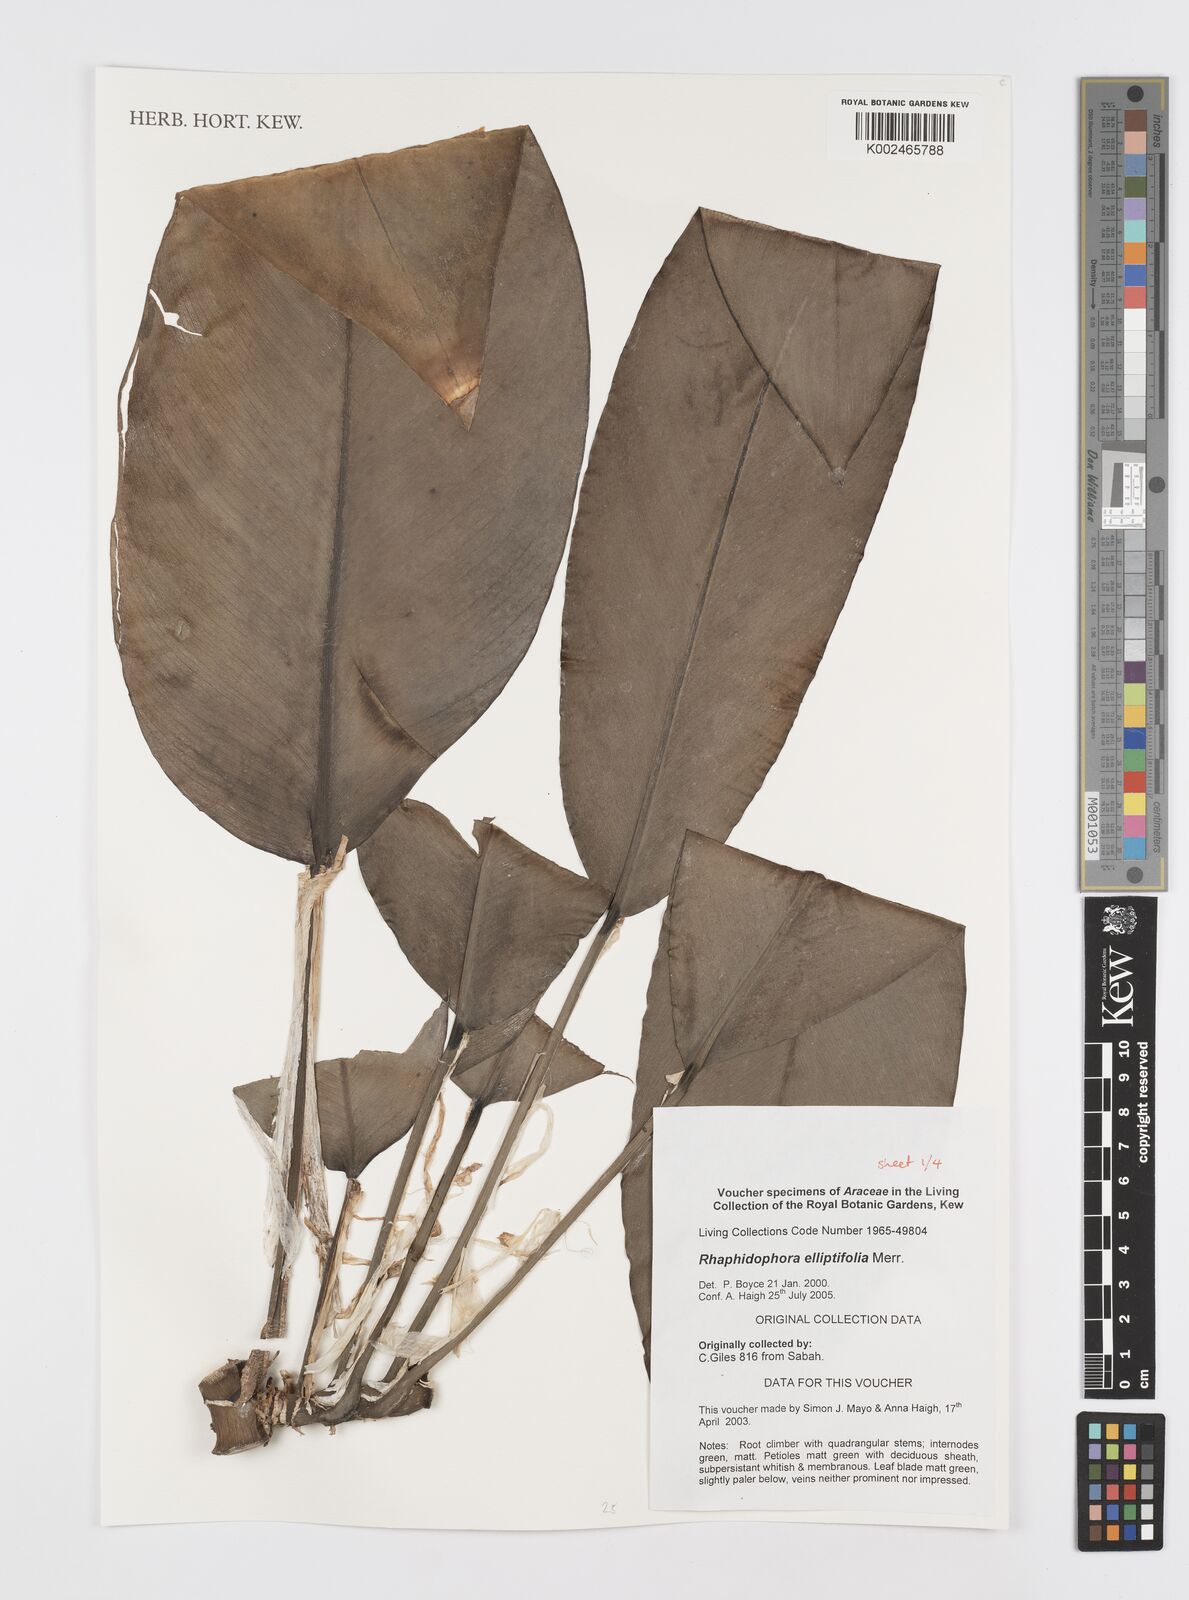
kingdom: Plantae
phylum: Tracheophyta
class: Liliopsida
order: Alismatales
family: Araceae
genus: Rhaphidophora
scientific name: Rhaphidophora elliptifolia
